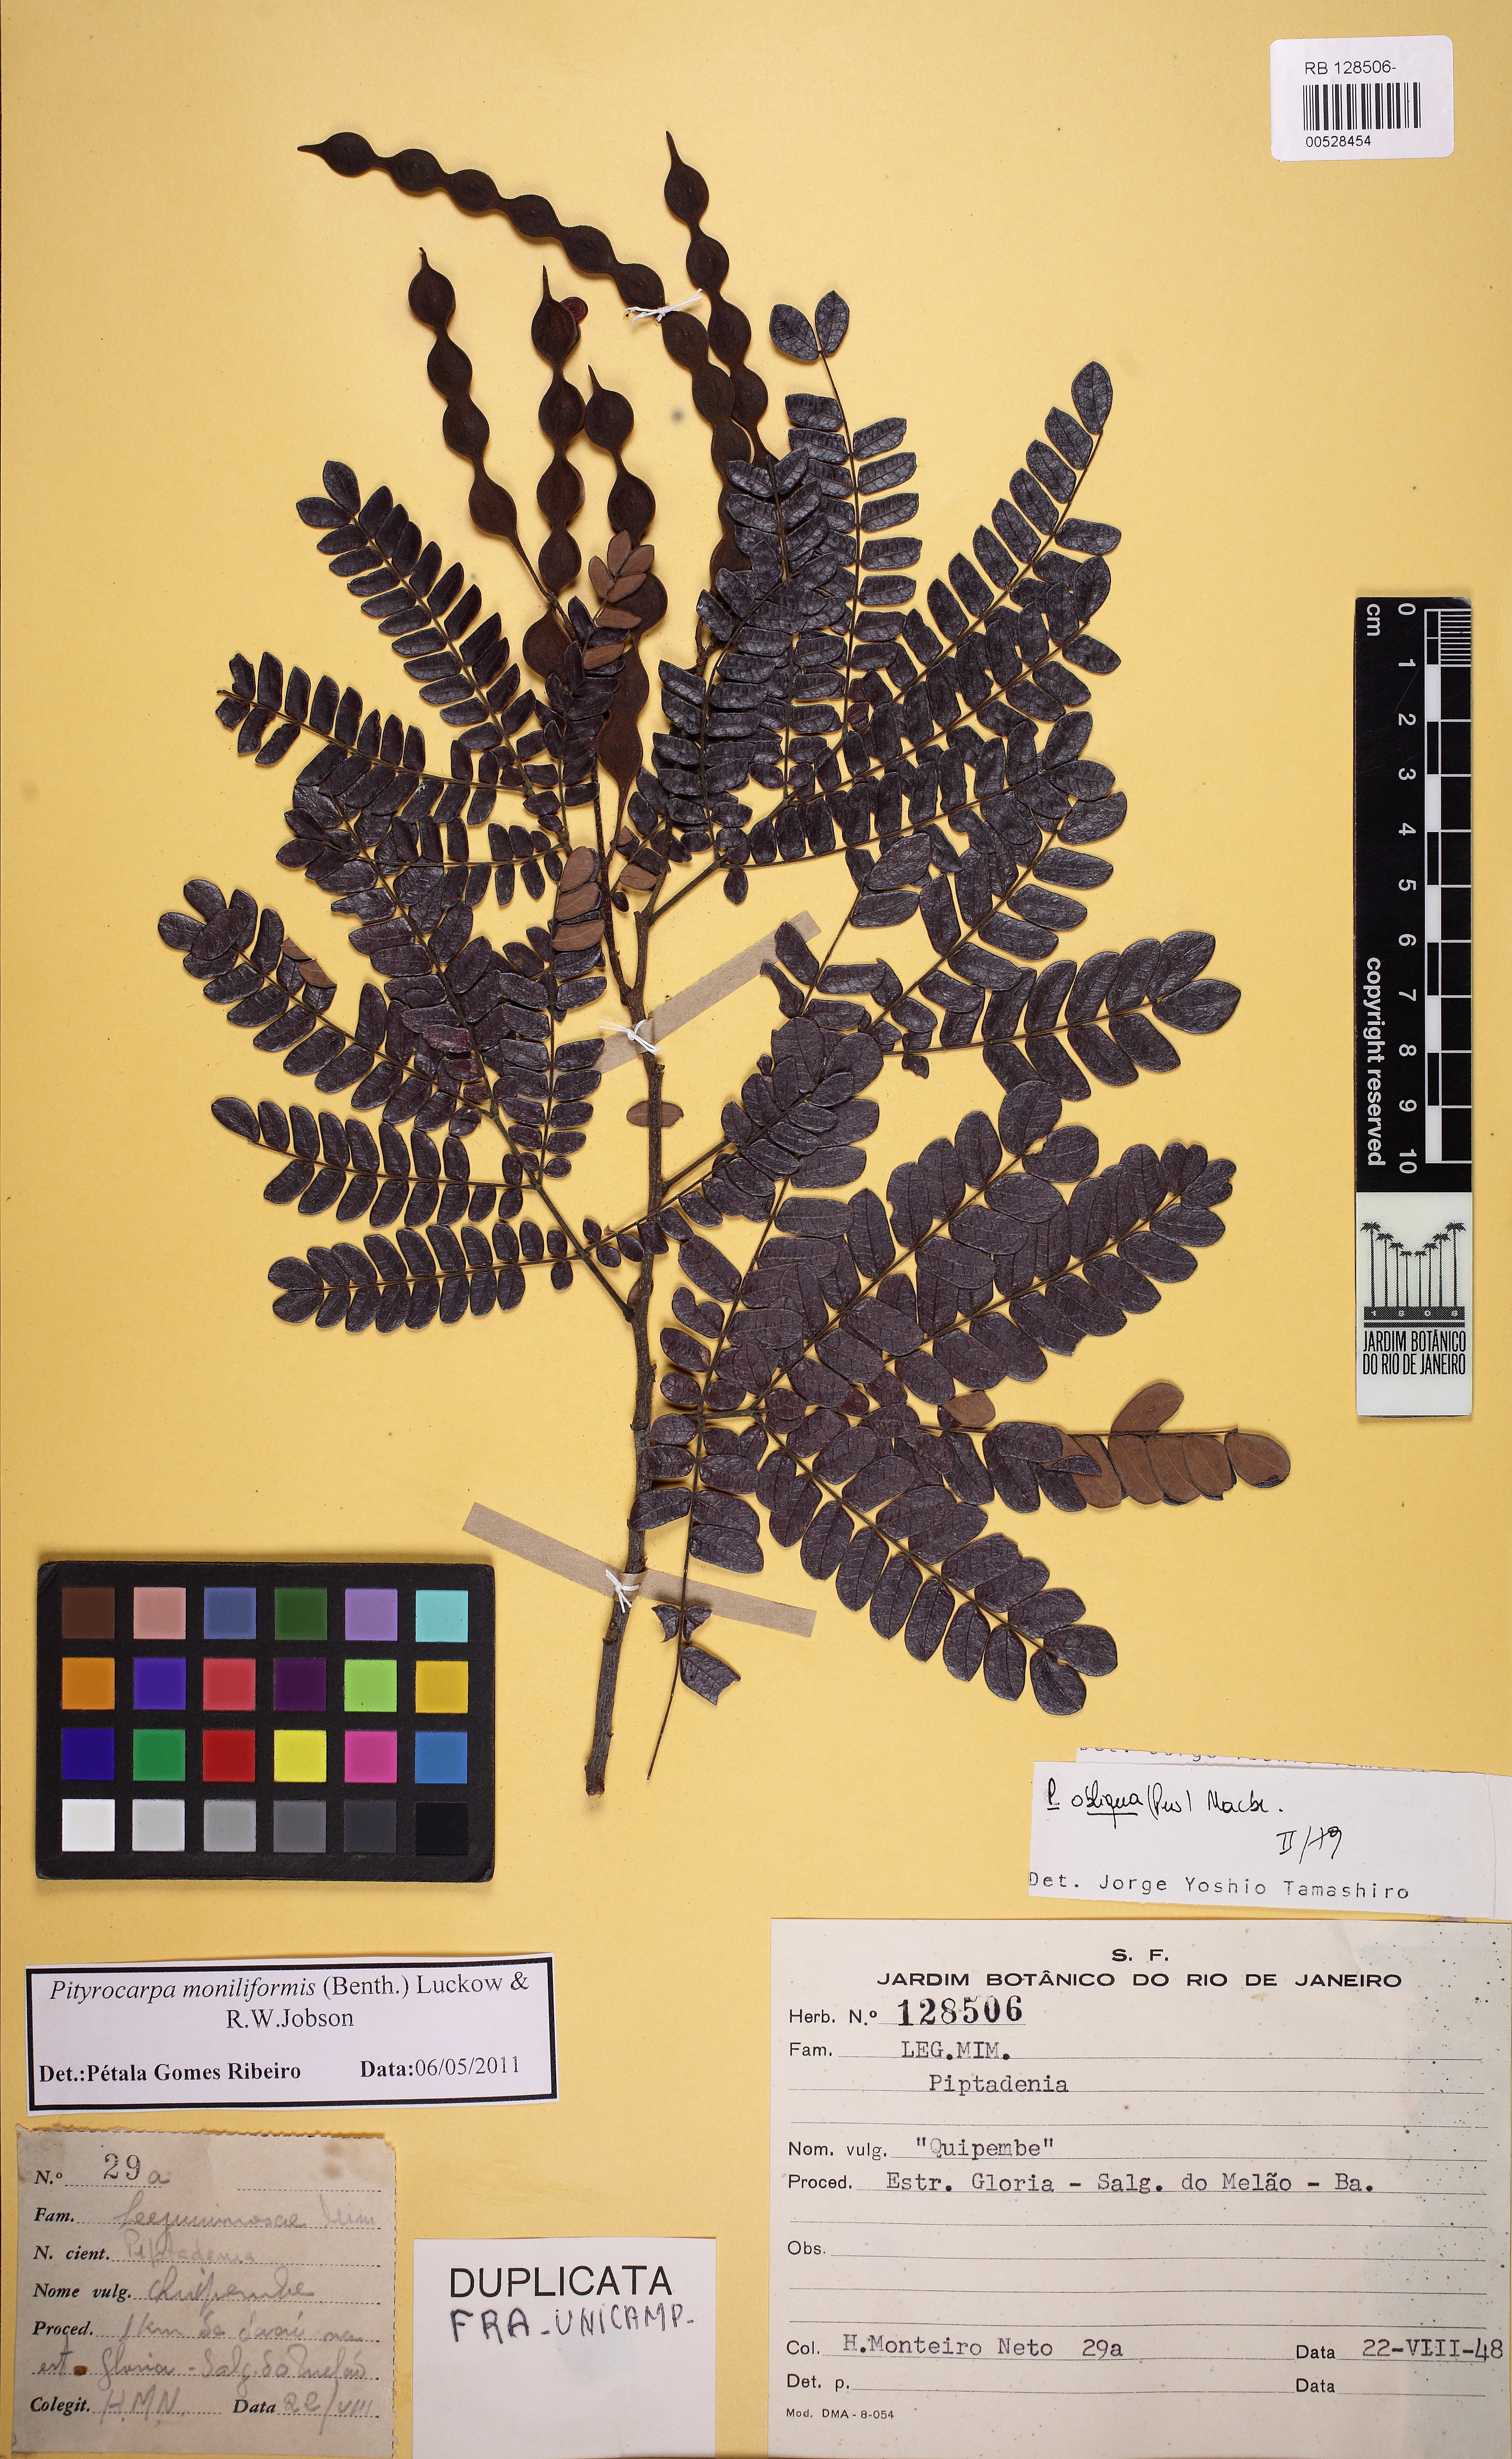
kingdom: Plantae
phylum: Tracheophyta
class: Magnoliopsida
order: Fabales
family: Fabaceae
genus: Pityrocarpa
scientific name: Pityrocarpa moniliformis
